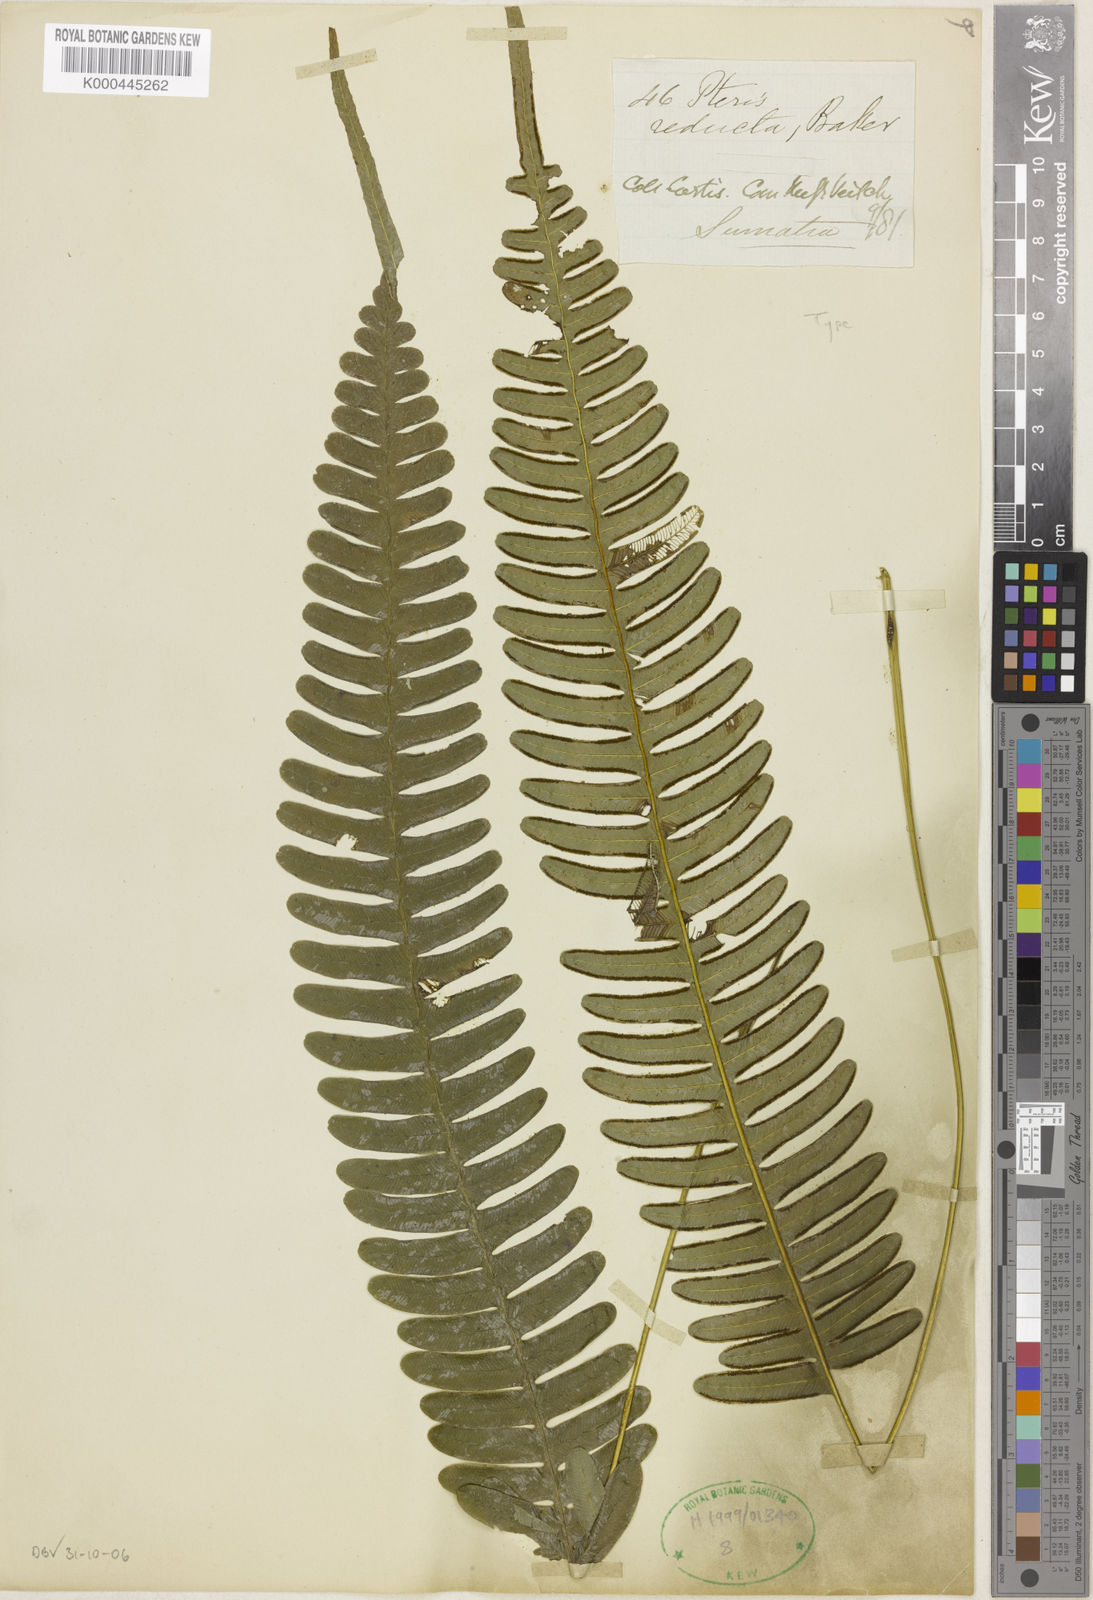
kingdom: Plantae
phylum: Tracheophyta
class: Polypodiopsida
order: Polypodiales
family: Pteridaceae
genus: Pteris
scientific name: Pteris reducta
